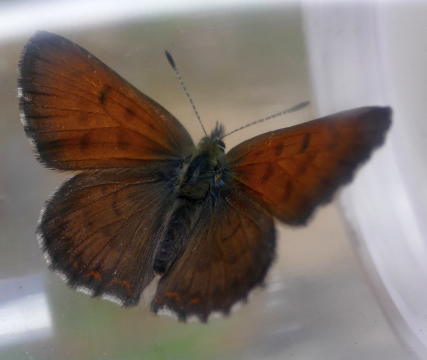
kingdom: Animalia
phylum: Arthropoda
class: Insecta
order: Lepidoptera
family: Lycaenidae
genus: Lycaena
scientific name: Lycaena mariposa
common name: Mariposa Copper
